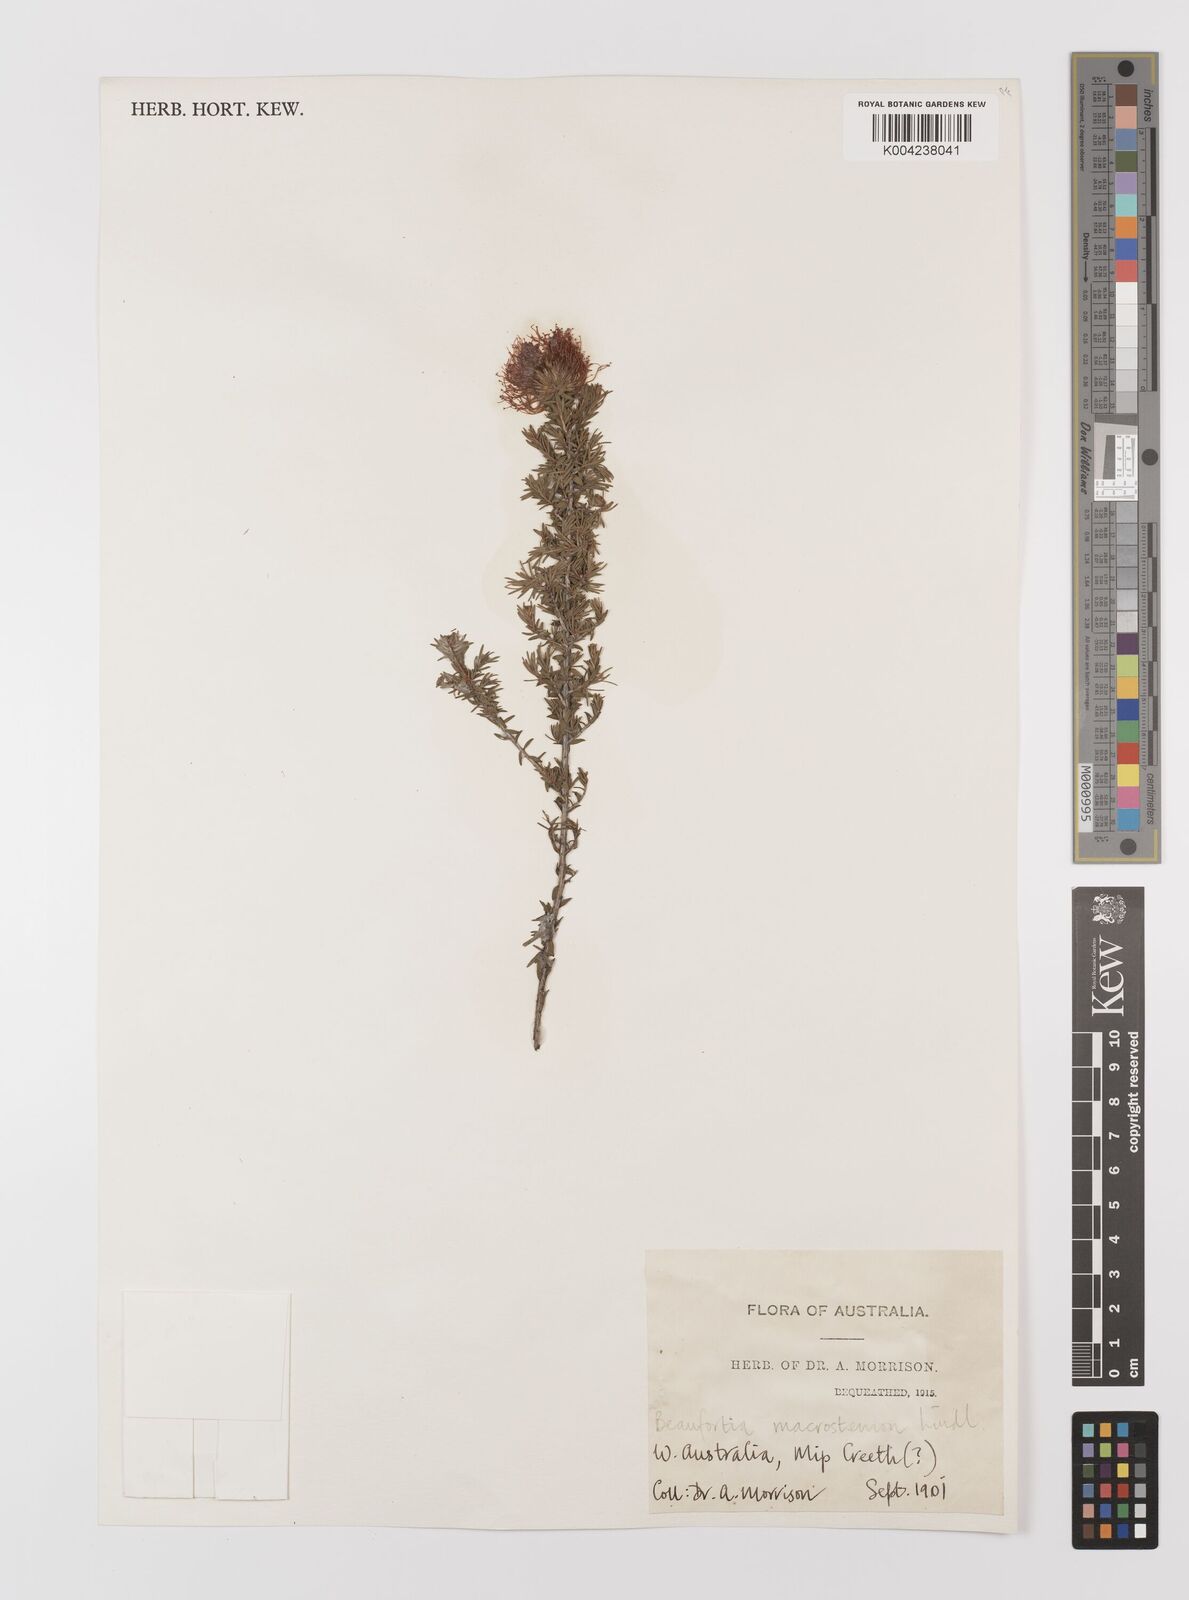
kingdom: Plantae
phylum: Tracheophyta
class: Magnoliopsida
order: Myrtales
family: Myrtaceae
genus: Melaleuca
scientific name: Melaleuca macrostemon
